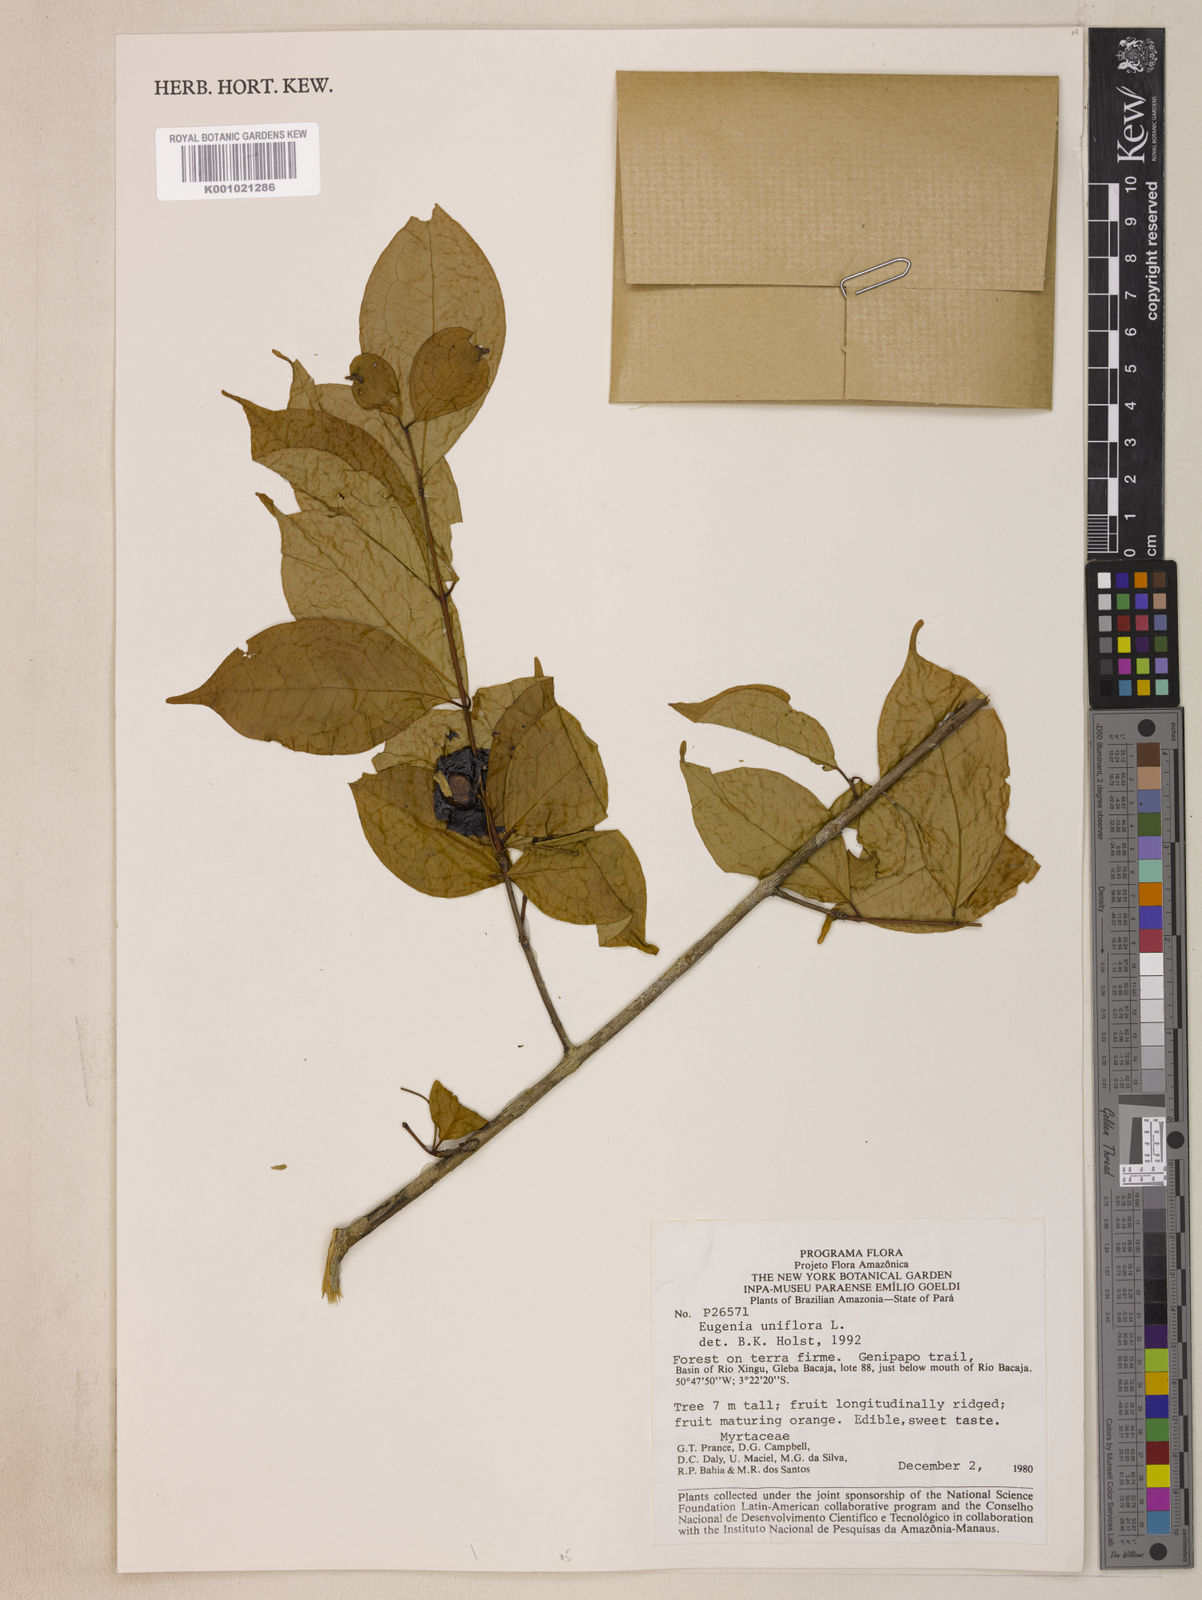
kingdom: Plantae
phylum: Tracheophyta
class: Magnoliopsida
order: Myrtales
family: Myrtaceae
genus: Eugenia
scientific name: Eugenia uniflora
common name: Surinam cherry
